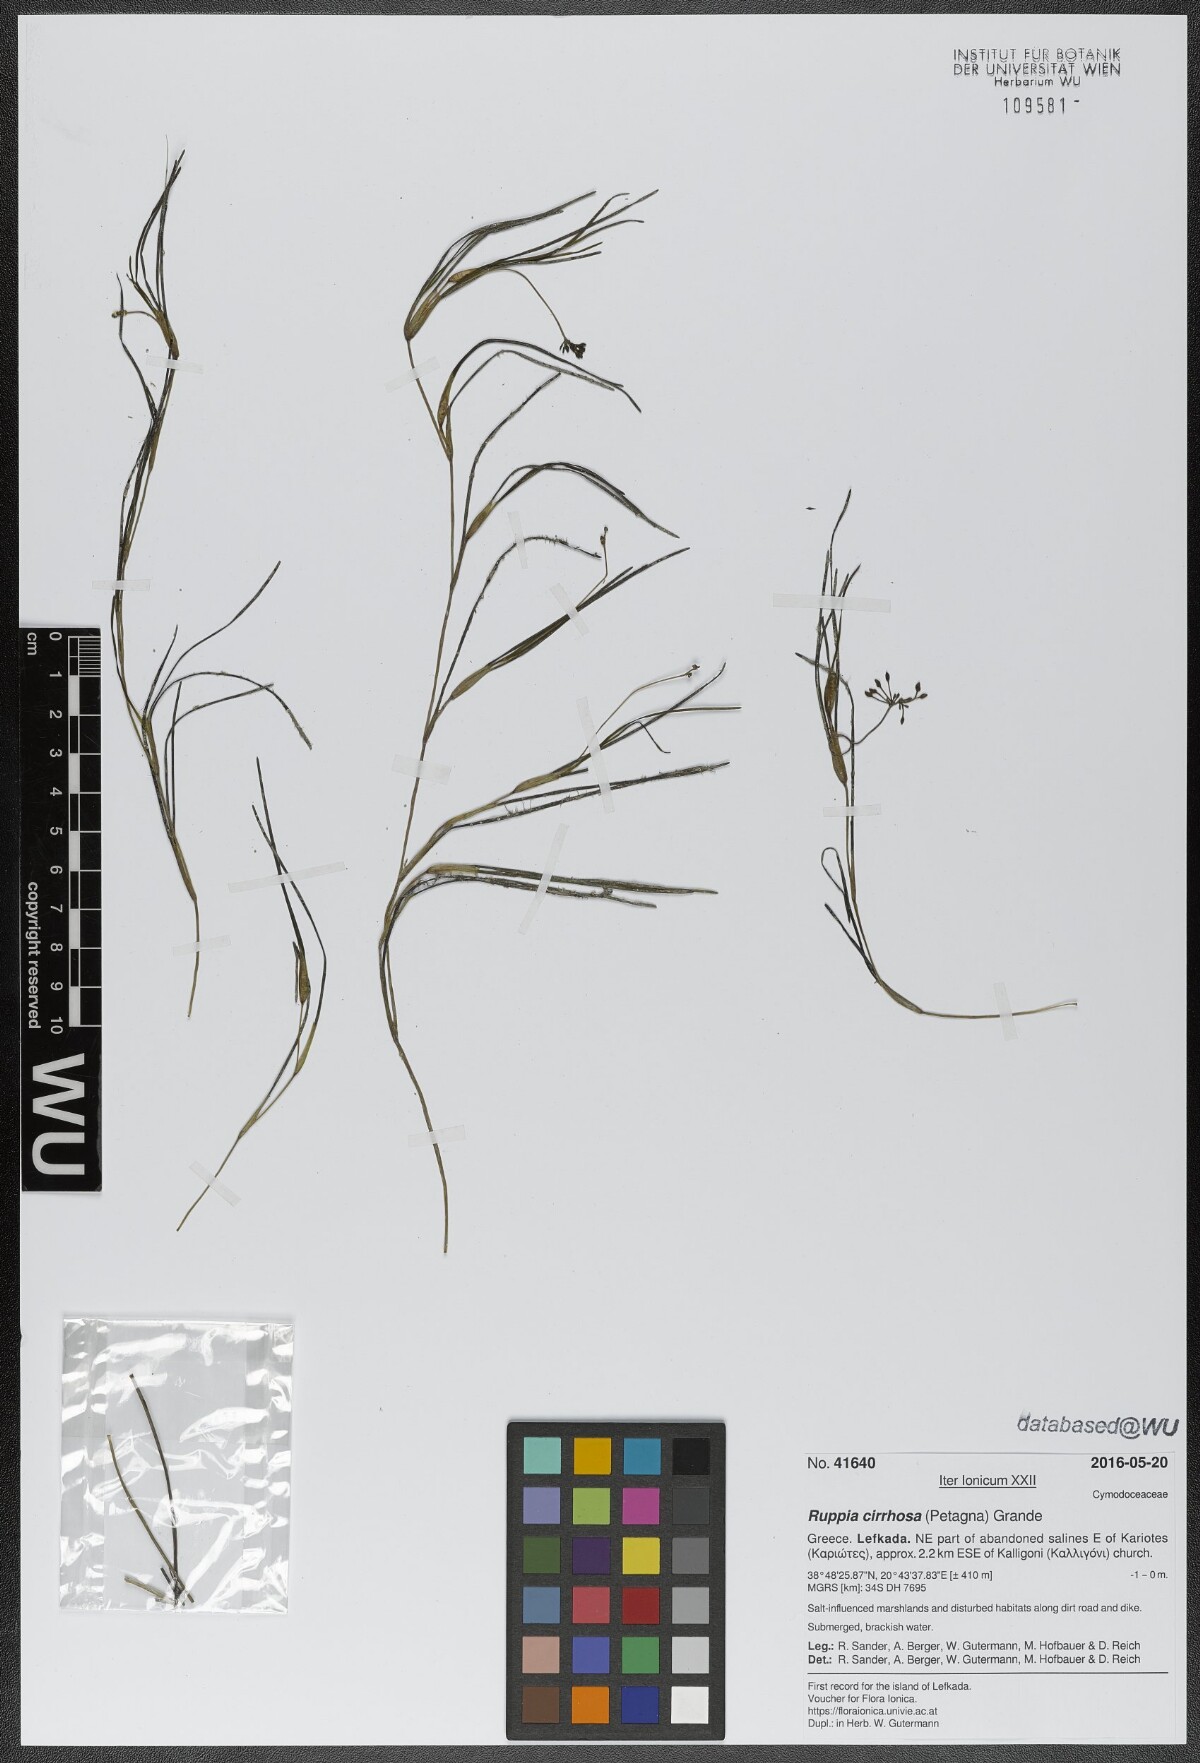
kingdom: Plantae
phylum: Tracheophyta
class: Liliopsida
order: Alismatales
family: Ruppiaceae
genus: Ruppia
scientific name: Ruppia cirrhosa
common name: Spiral tasselweed
